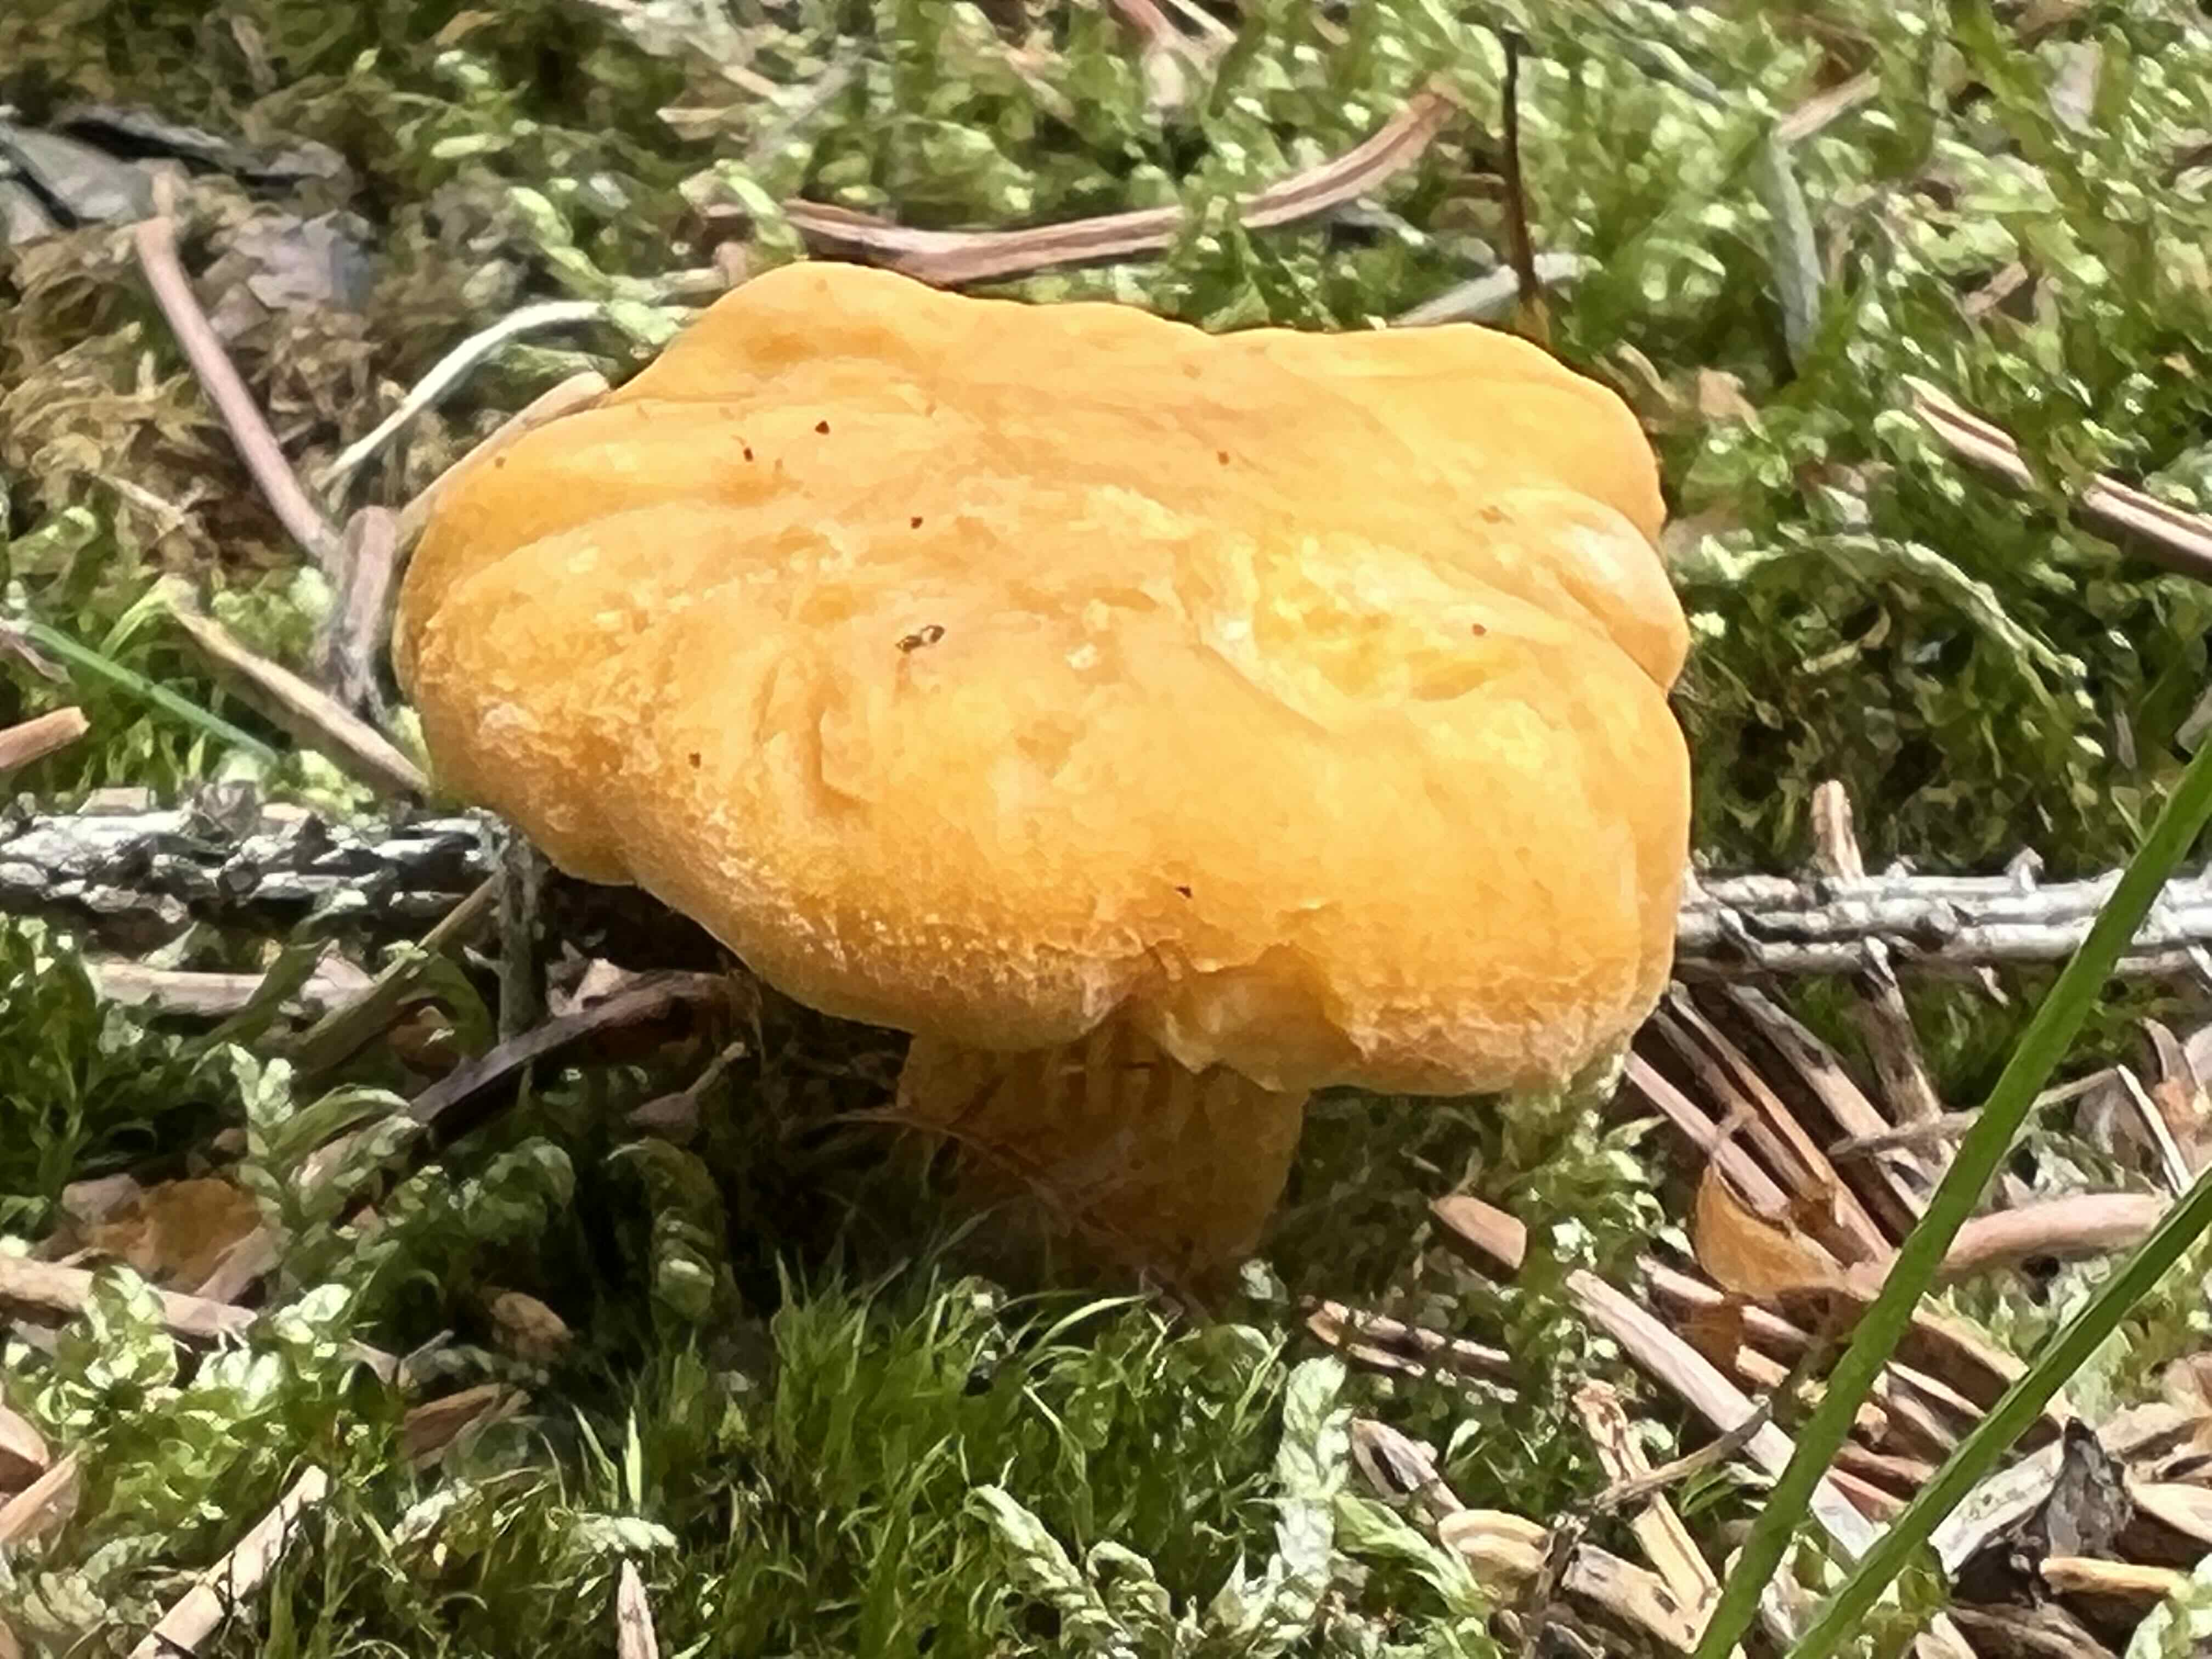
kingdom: Fungi
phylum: Basidiomycota
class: Agaricomycetes
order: Cantharellales
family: Hydnaceae
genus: Cantharellus
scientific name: Cantharellus cibarius
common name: almindelig kantarel
